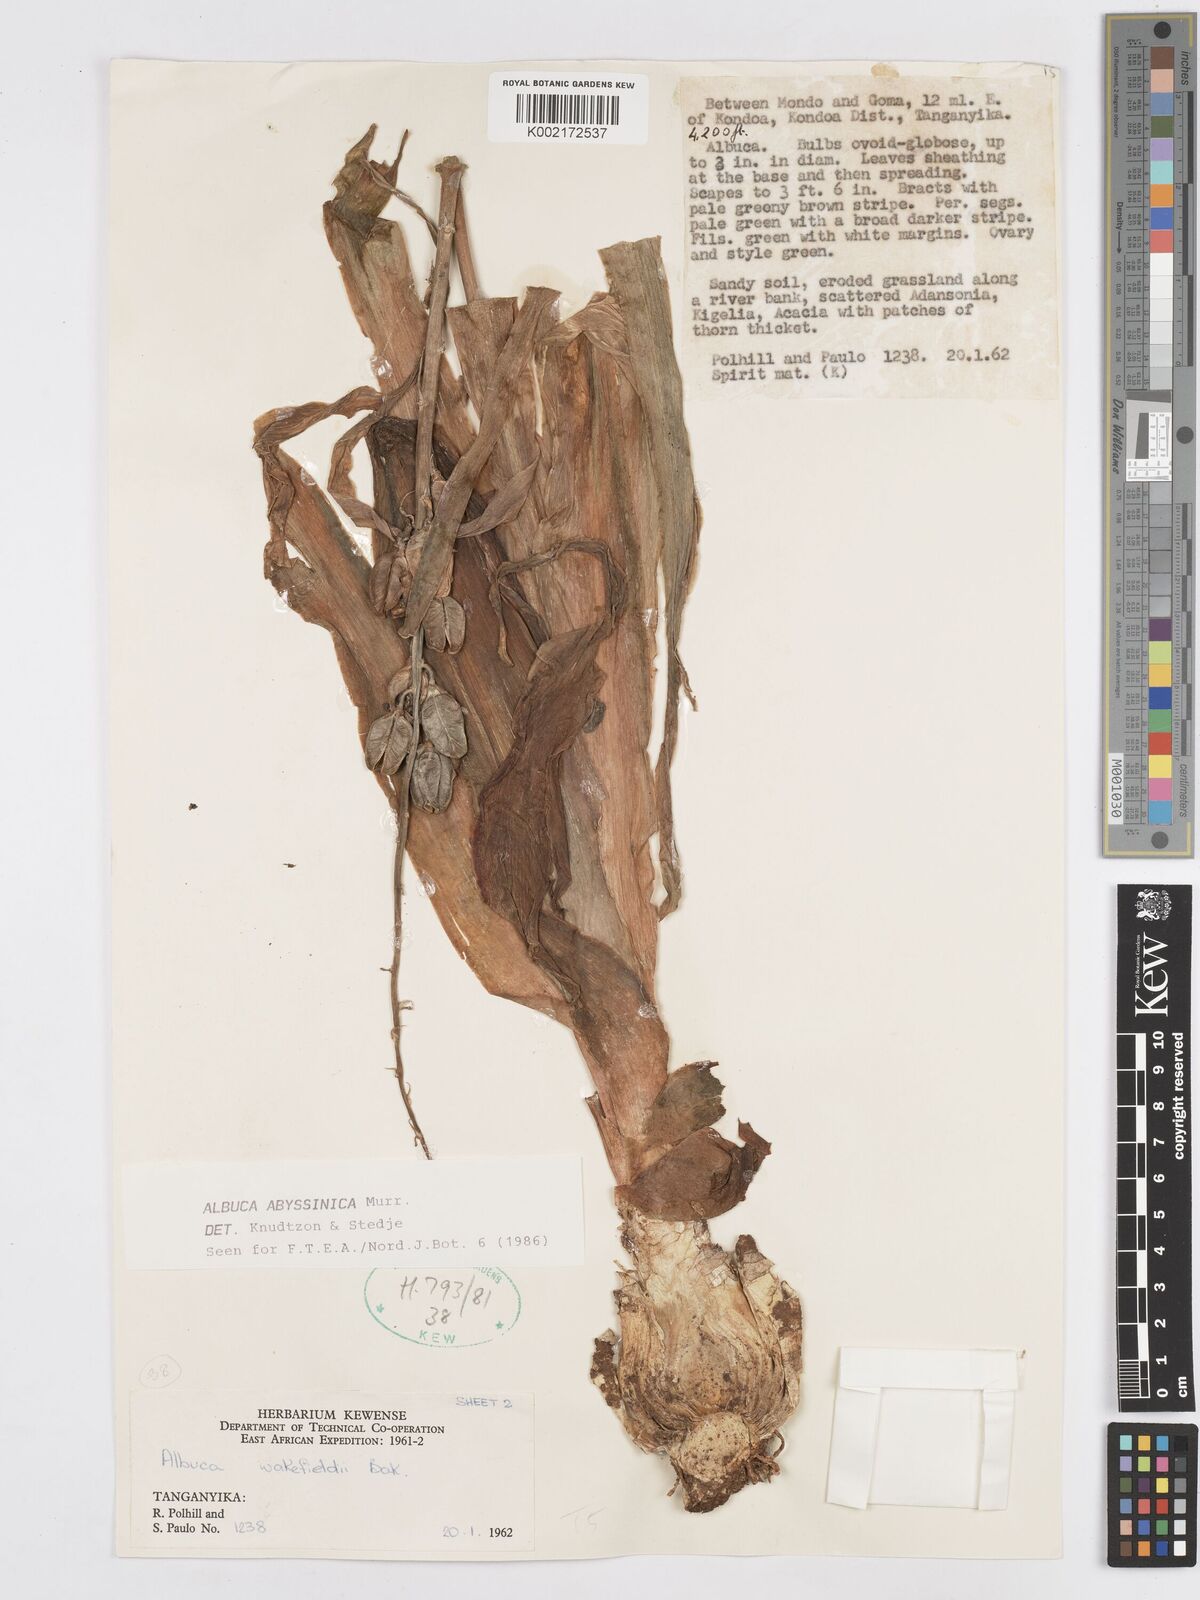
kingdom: Plantae
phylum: Tracheophyta
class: Liliopsida
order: Asparagales
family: Asparagaceae
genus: Albuca
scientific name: Albuca abyssinica
